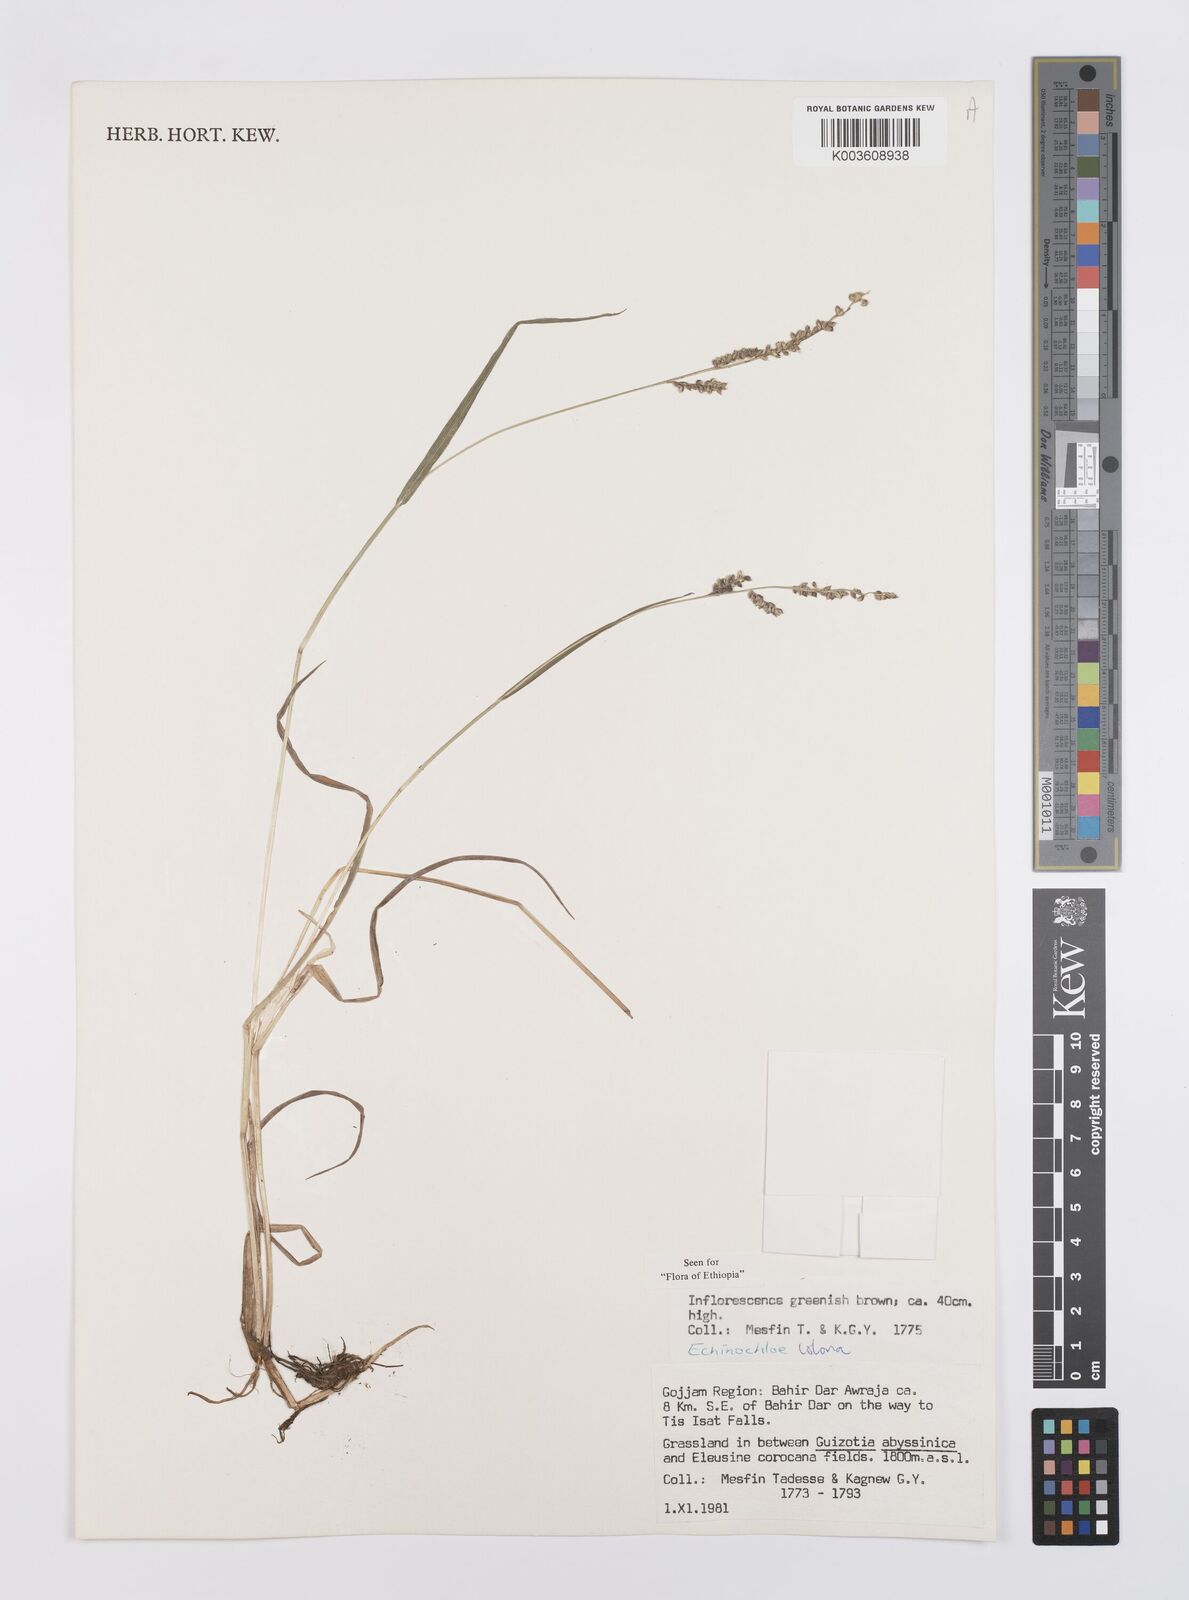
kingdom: Plantae
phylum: Tracheophyta
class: Liliopsida
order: Poales
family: Poaceae
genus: Echinochloa
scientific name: Echinochloa colonum
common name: Jungle rice
